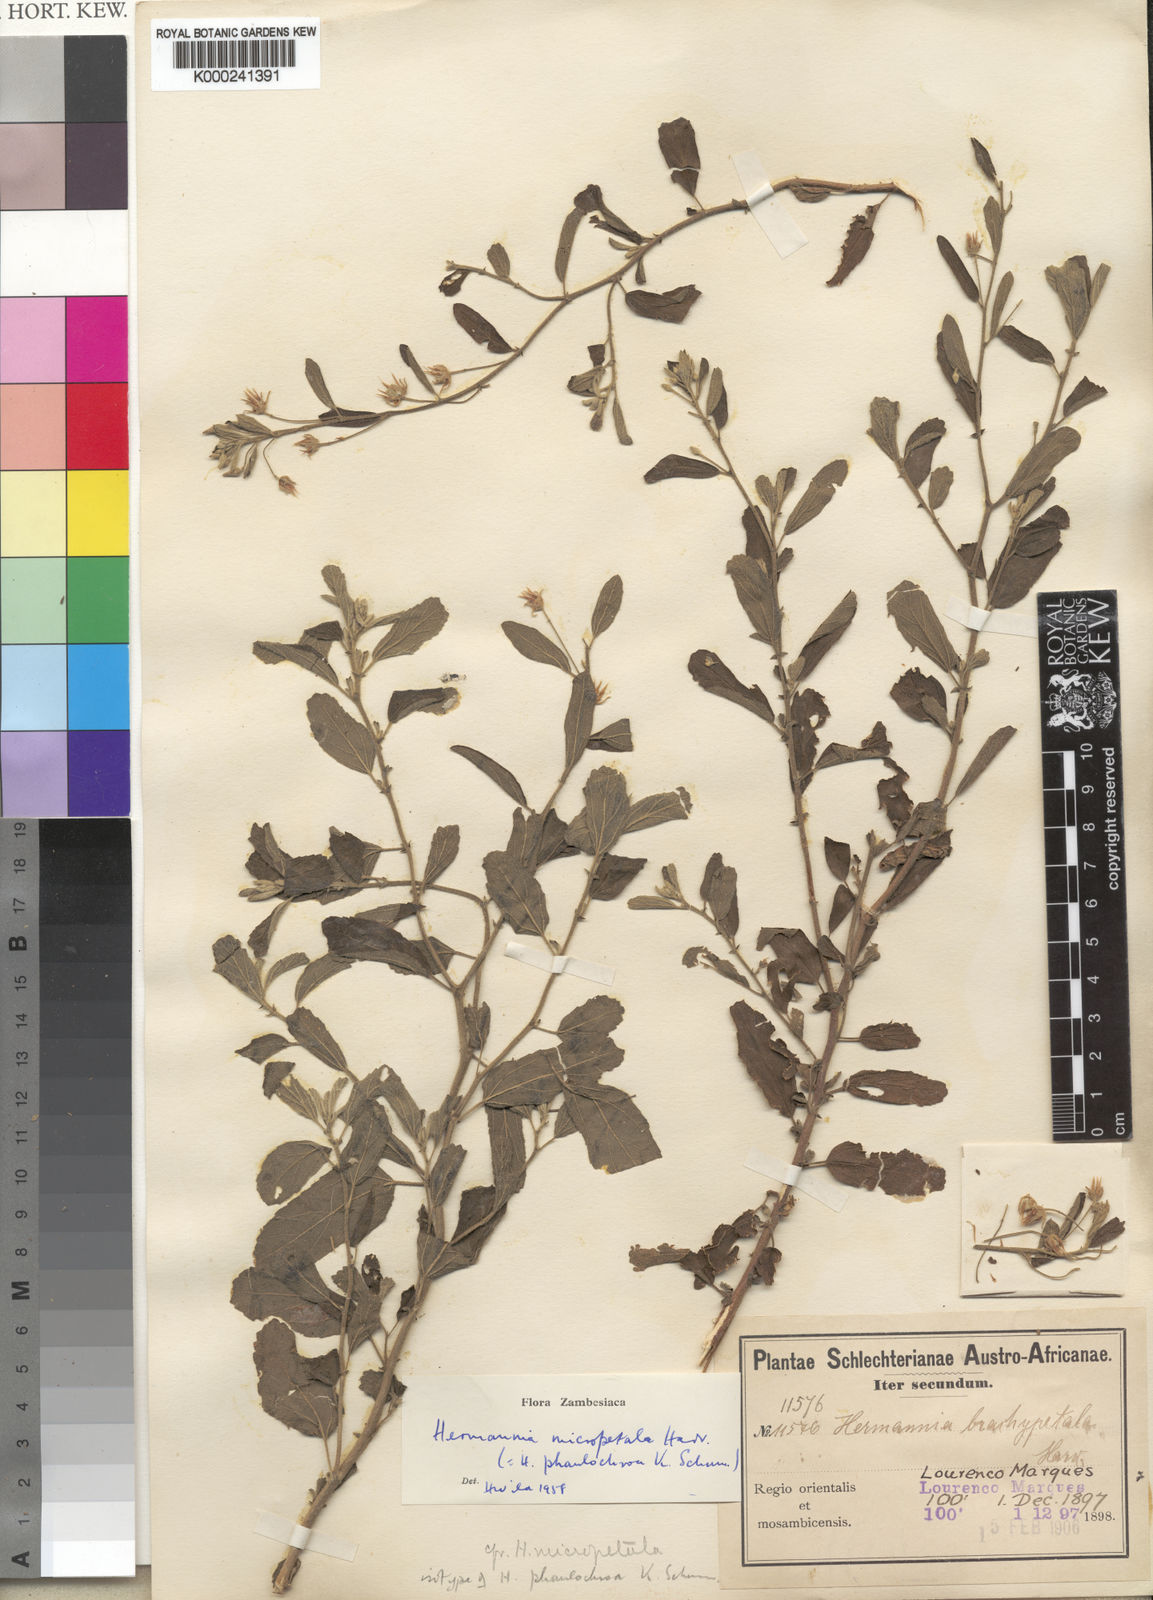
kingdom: Plantae
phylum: Tracheophyta
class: Magnoliopsida
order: Malvales
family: Malvaceae
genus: Hermannia
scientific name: Hermannia micropetala
